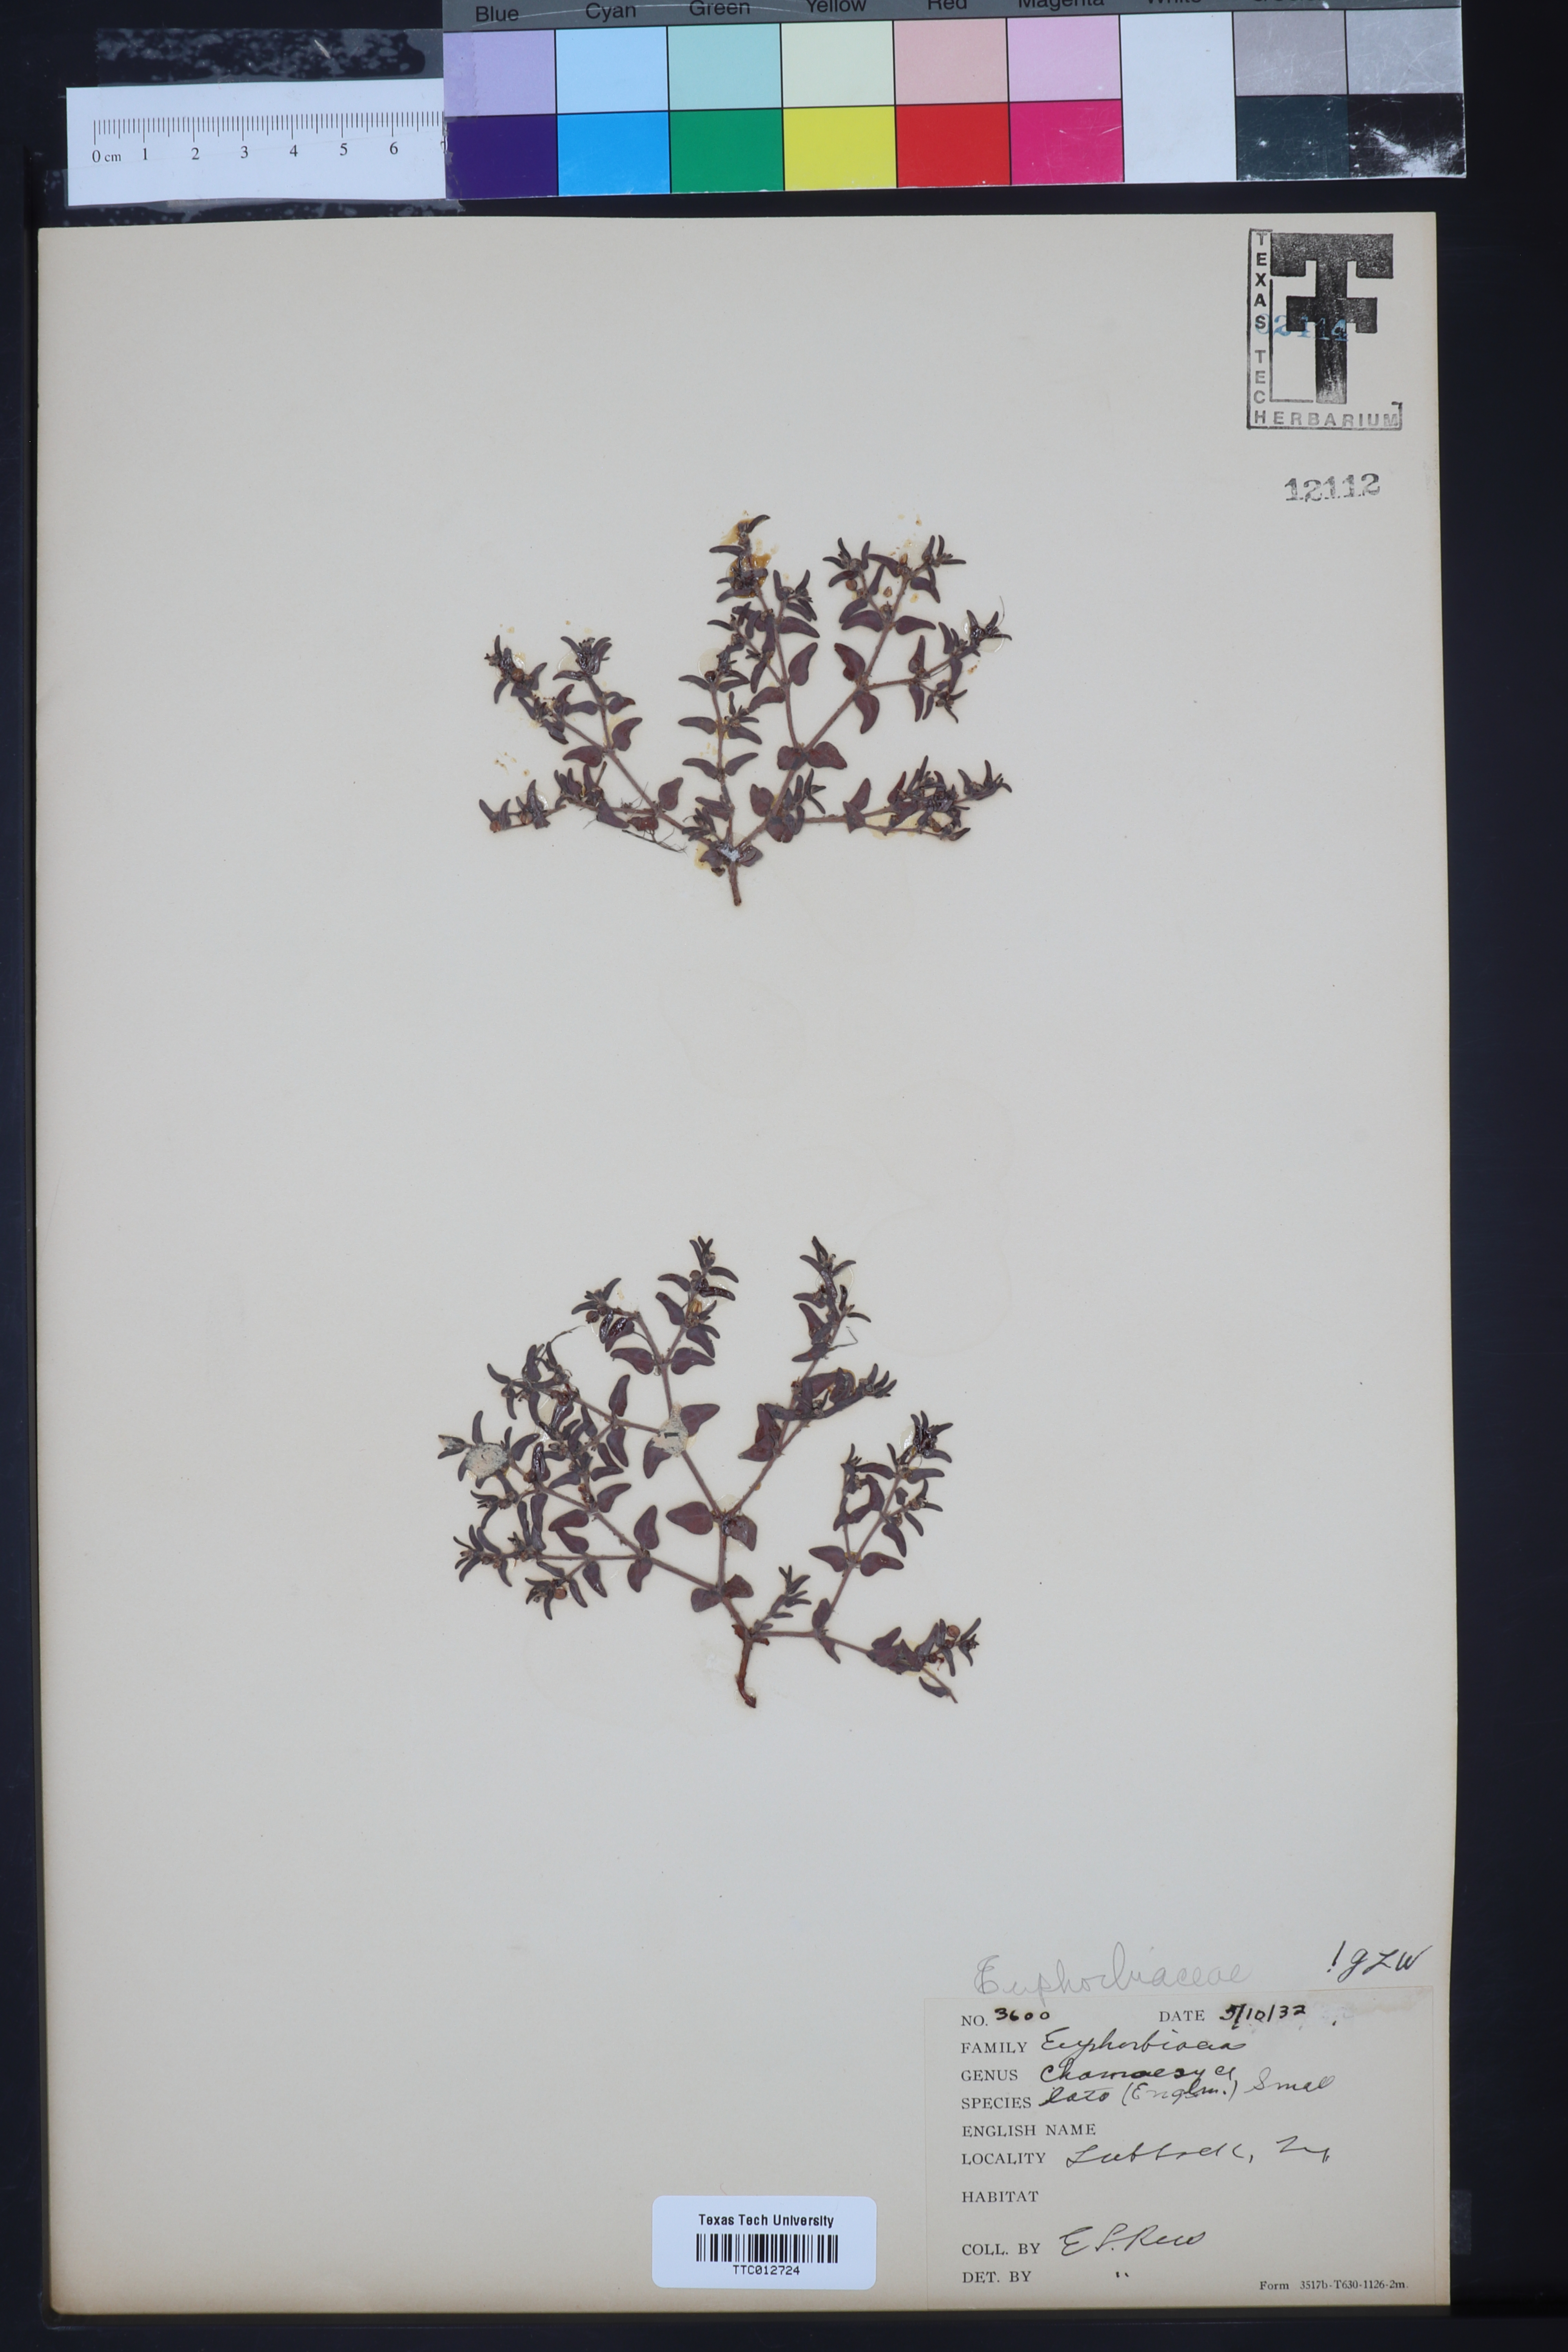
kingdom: Plantae
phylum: Tracheophyta
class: Magnoliopsida
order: Malpighiales
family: Euphorbiaceae
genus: Euphorbia
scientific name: Euphorbia lata
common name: Hoary euphorbia
